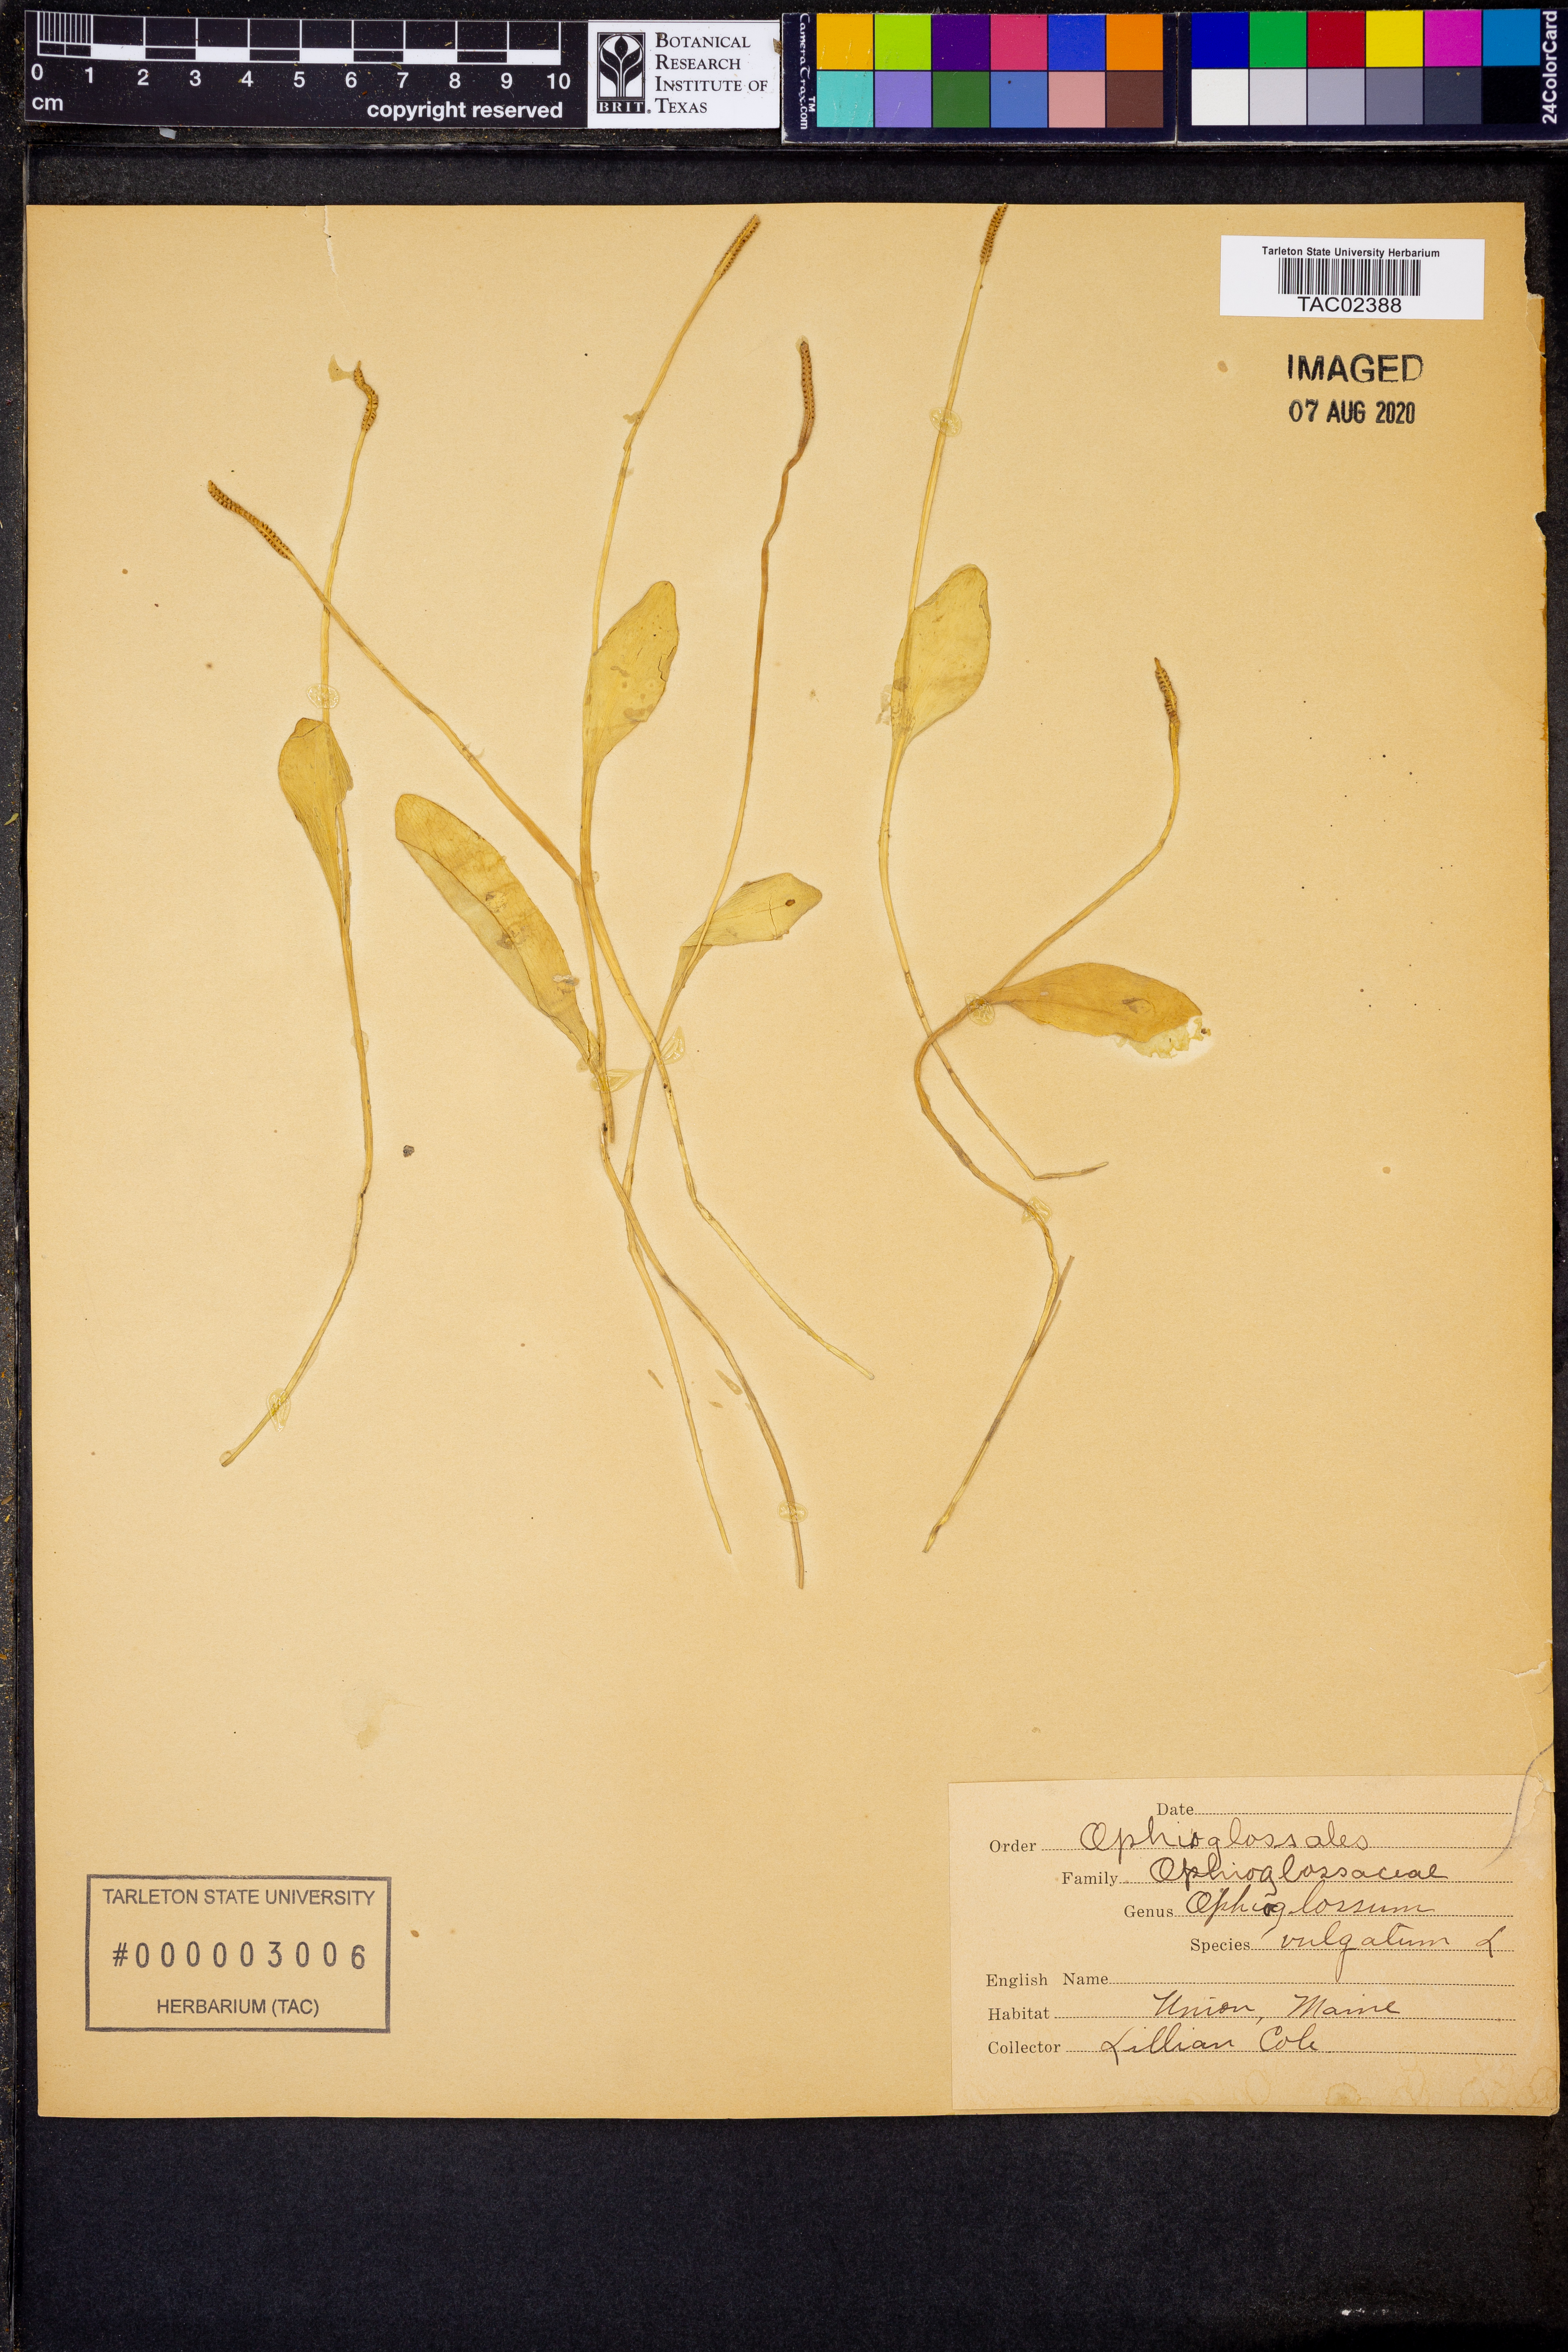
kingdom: Plantae
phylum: Tracheophyta
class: Polypodiopsida
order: Ophioglossales
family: Ophioglossaceae
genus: Ophioglossum
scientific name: Ophioglossum vulgatum
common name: Adder's-tongue
